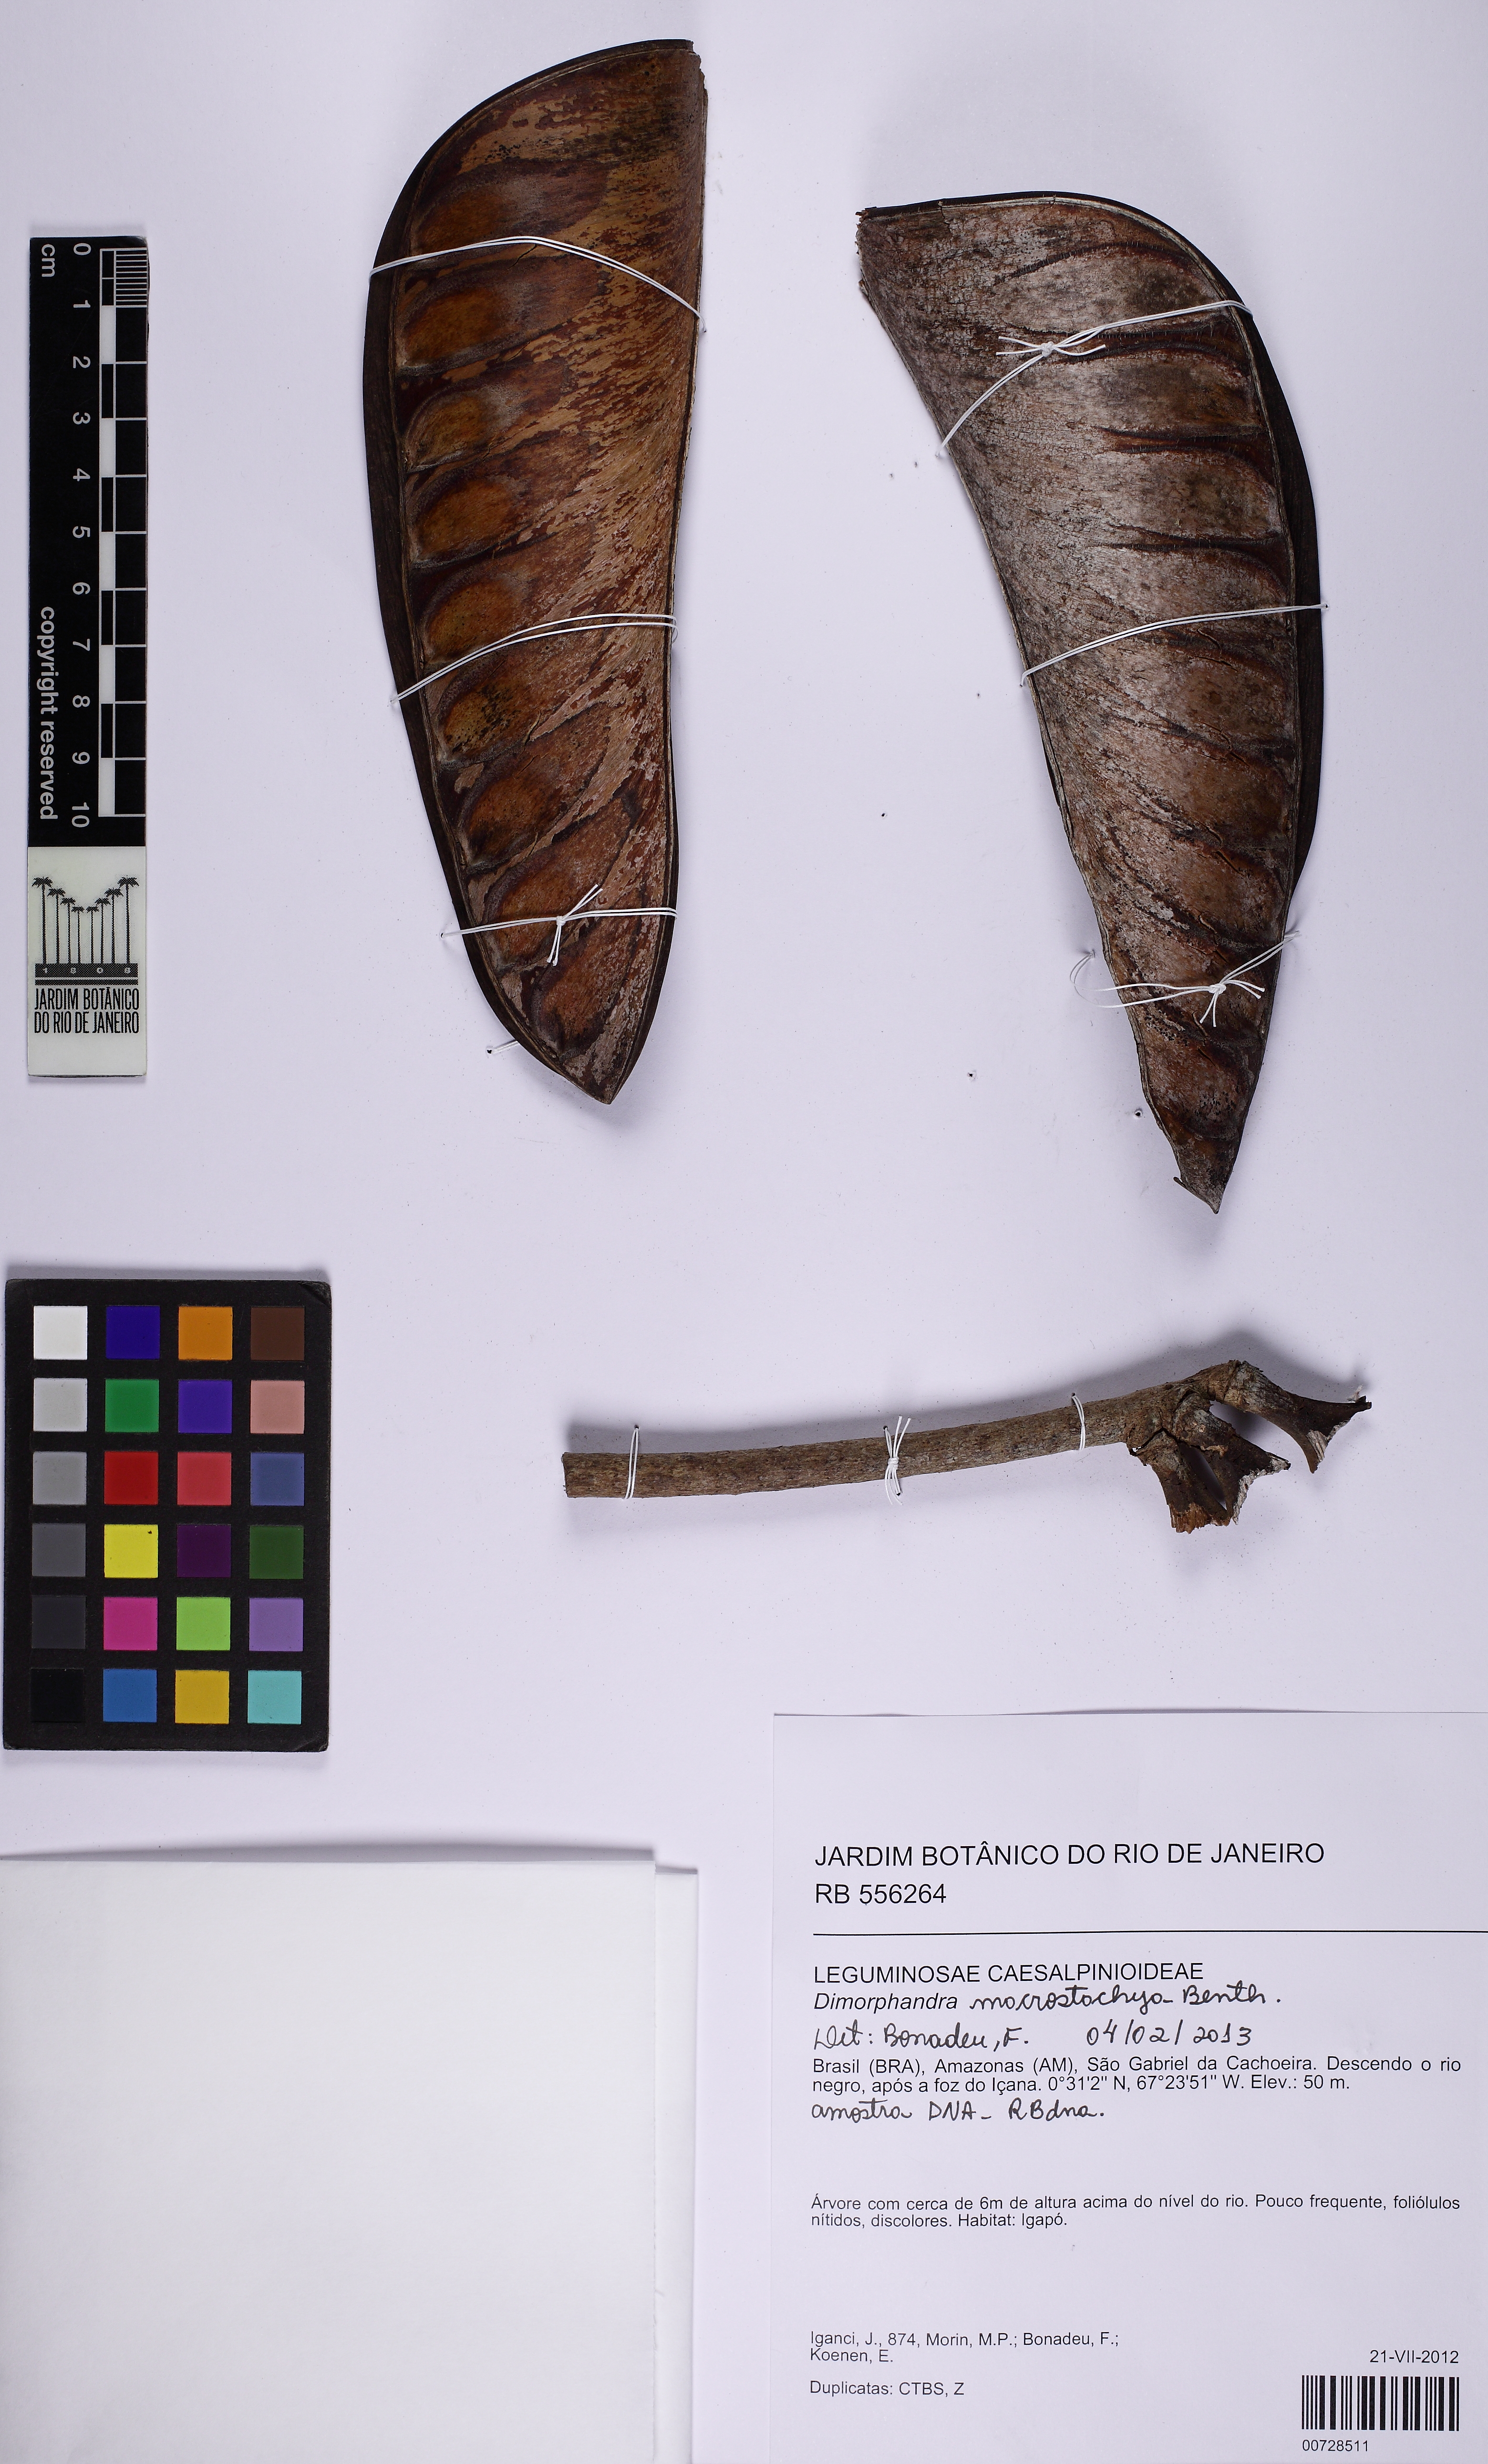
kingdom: Plantae
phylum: Tracheophyta
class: Magnoliopsida
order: Fabales
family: Fabaceae
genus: Dimorphandra
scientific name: Dimorphandra macrostachya
